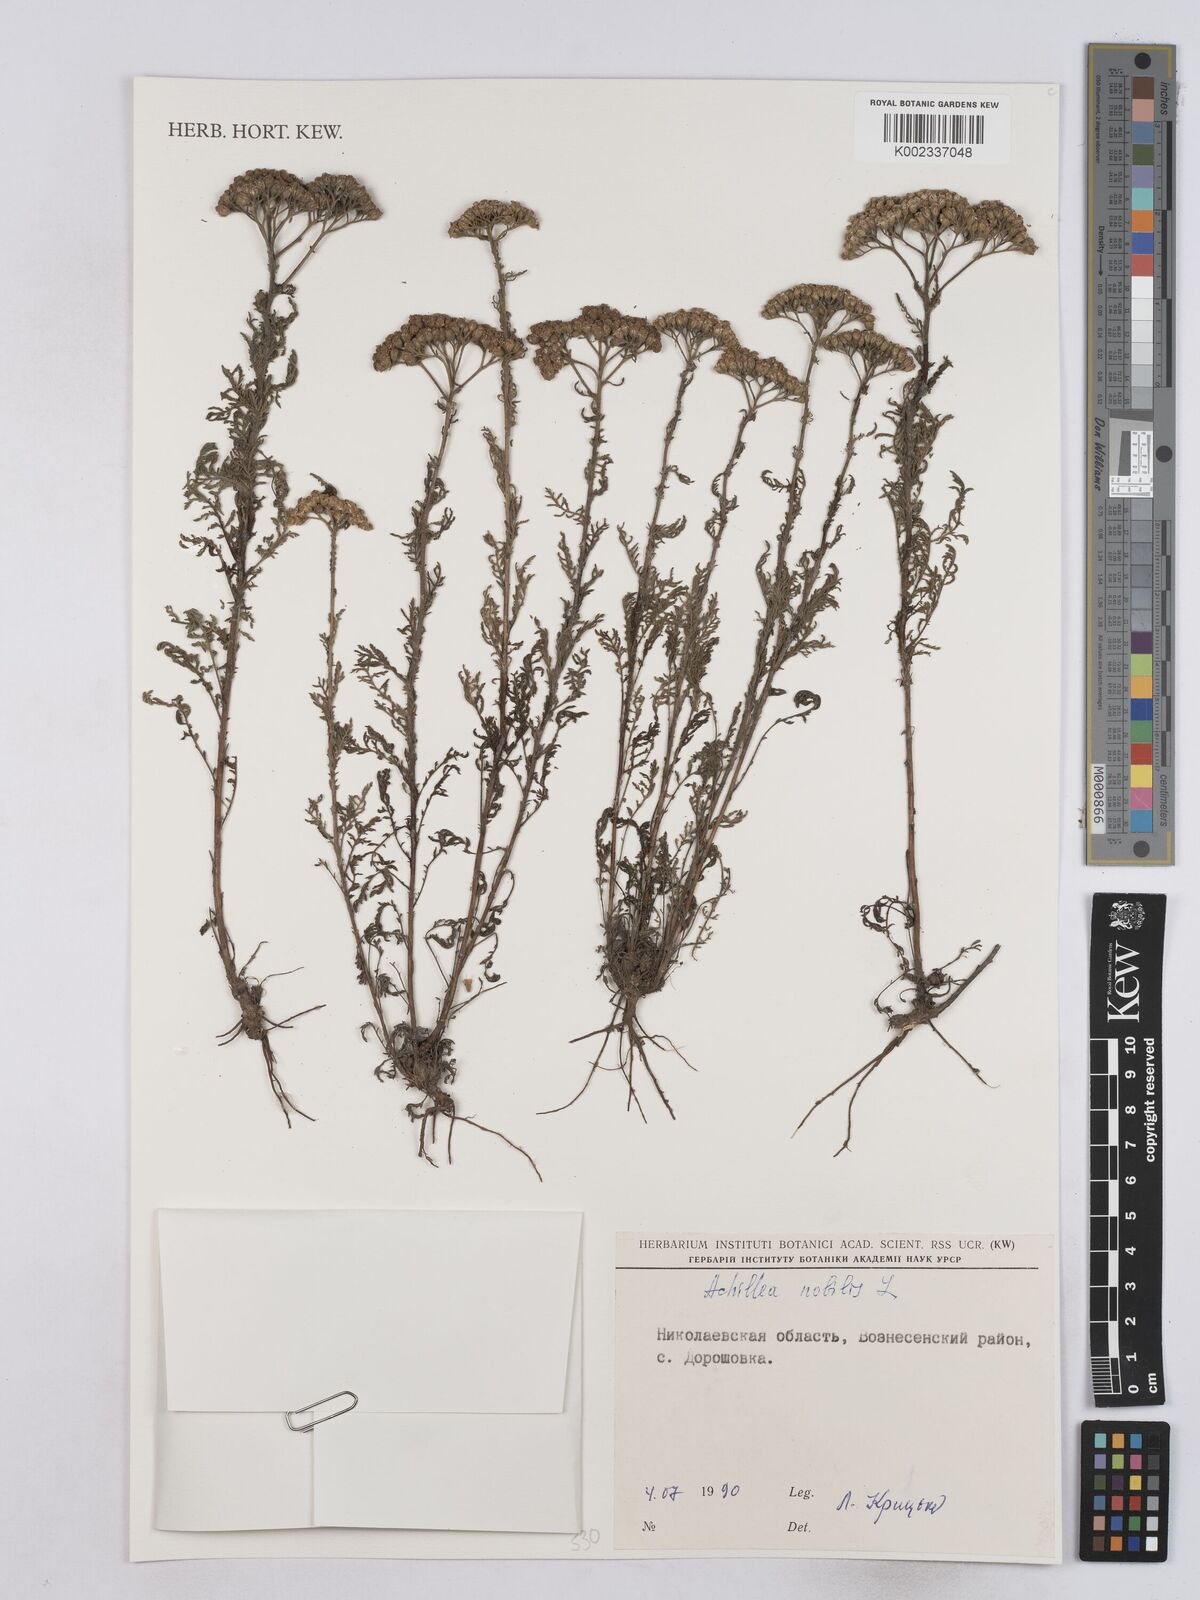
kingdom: Plantae
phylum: Tracheophyta
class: Magnoliopsida
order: Asterales
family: Asteraceae
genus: Achillea
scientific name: Achillea nobilis
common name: Noble yarrow
